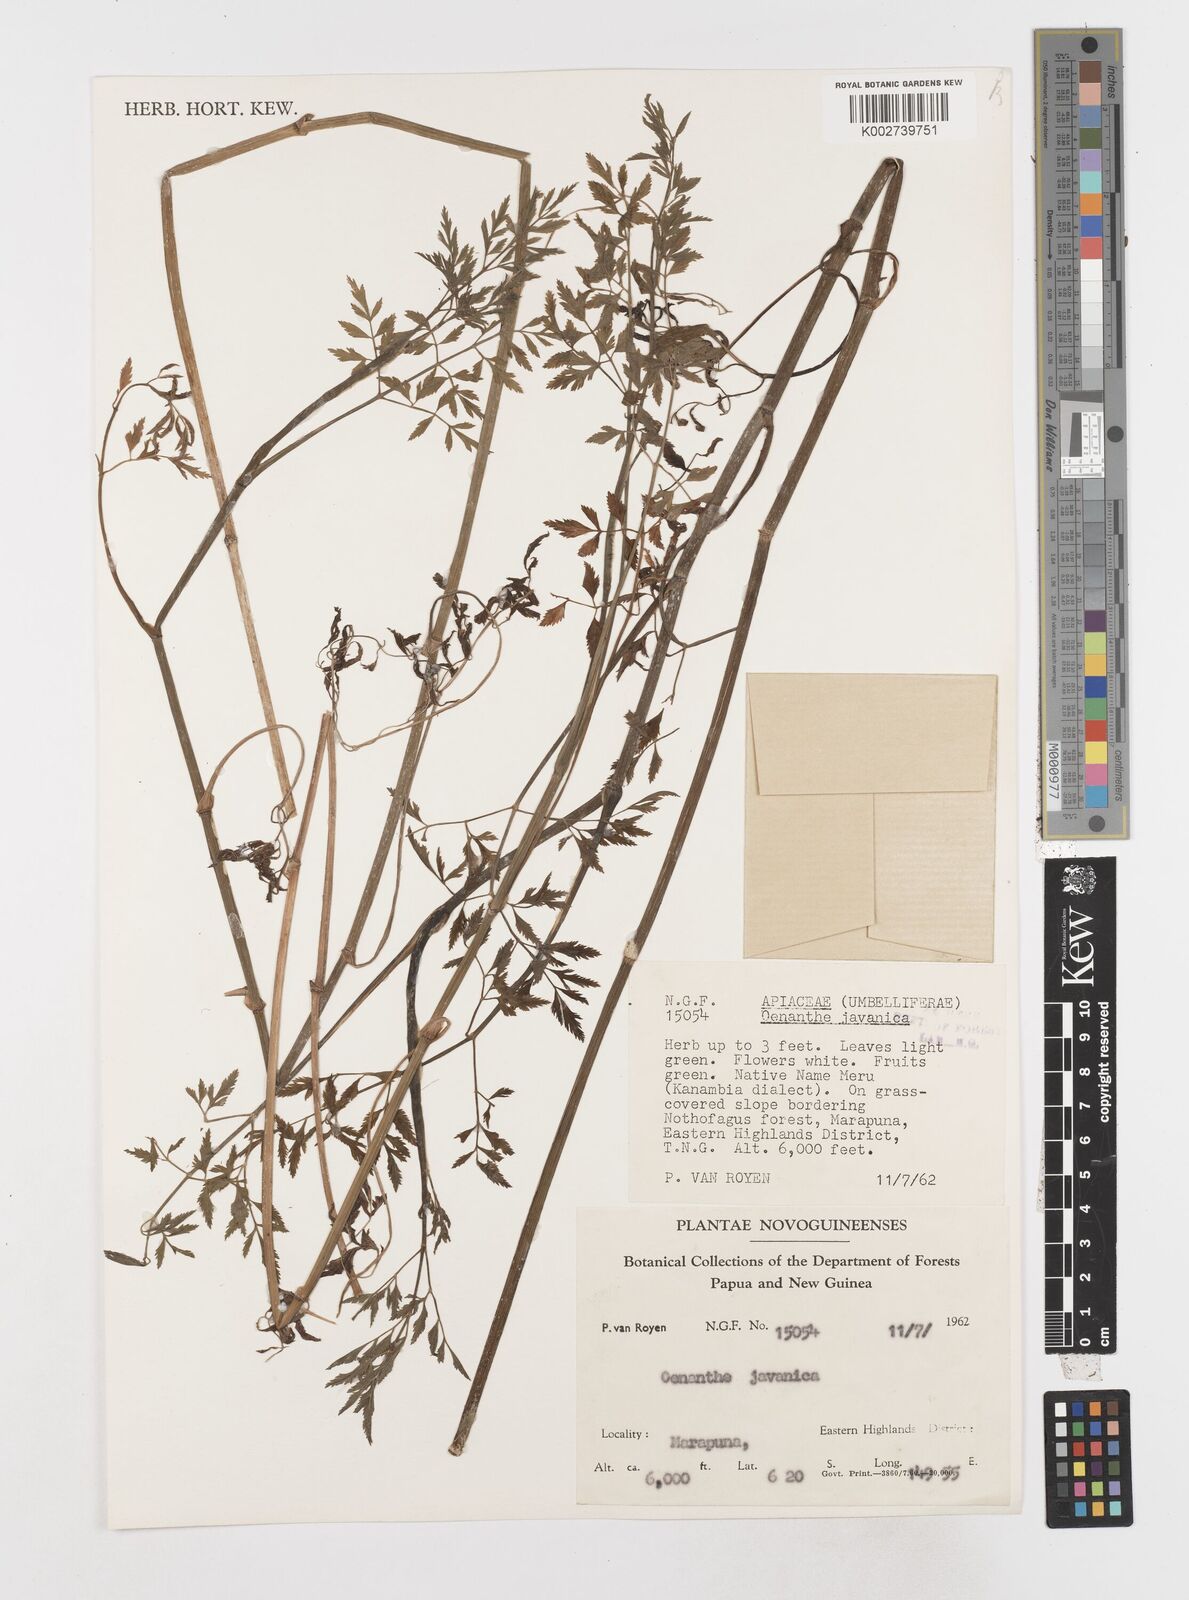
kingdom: Plantae
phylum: Tracheophyta
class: Magnoliopsida
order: Apiales
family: Apiaceae
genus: Oenanthe
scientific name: Oenanthe javanica
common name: Java water-dropwort
